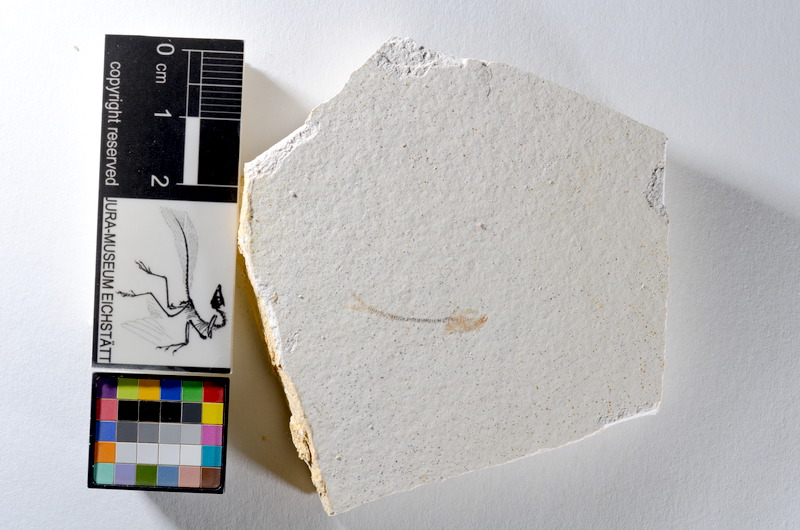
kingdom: Animalia
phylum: Chordata
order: Salmoniformes
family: Orthogonikleithridae
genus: Orthogonikleithrus
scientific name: Orthogonikleithrus hoelli
